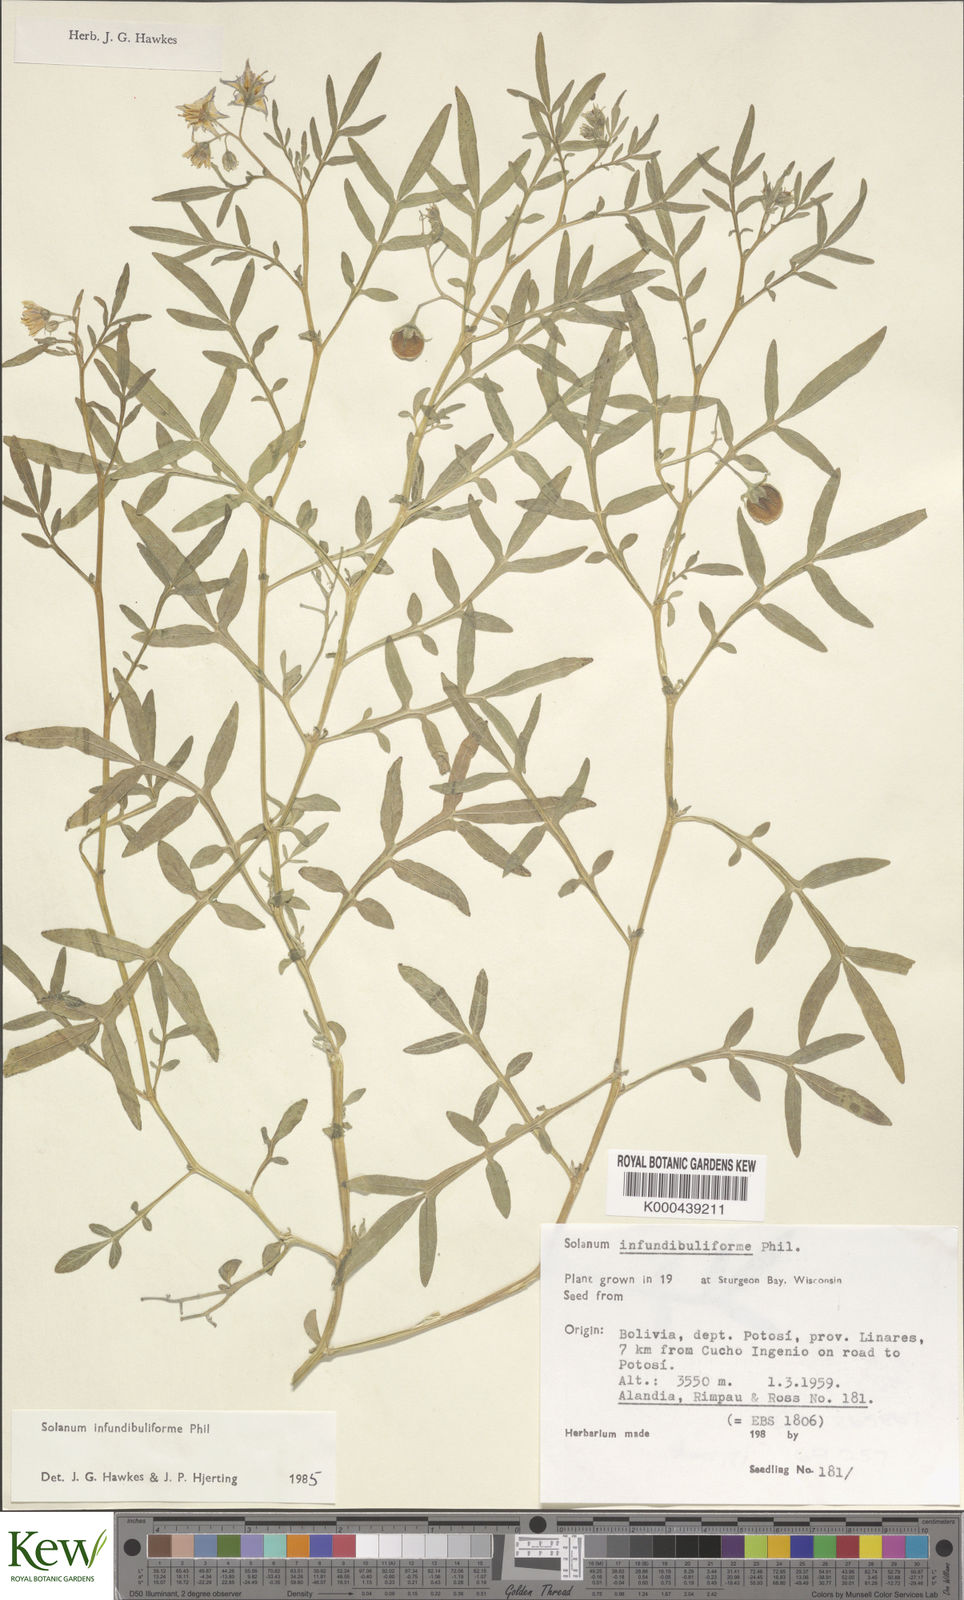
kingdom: Plantae
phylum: Tracheophyta
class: Magnoliopsida
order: Solanales
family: Solanaceae
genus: Solanum
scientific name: Solanum infundibuliforme
